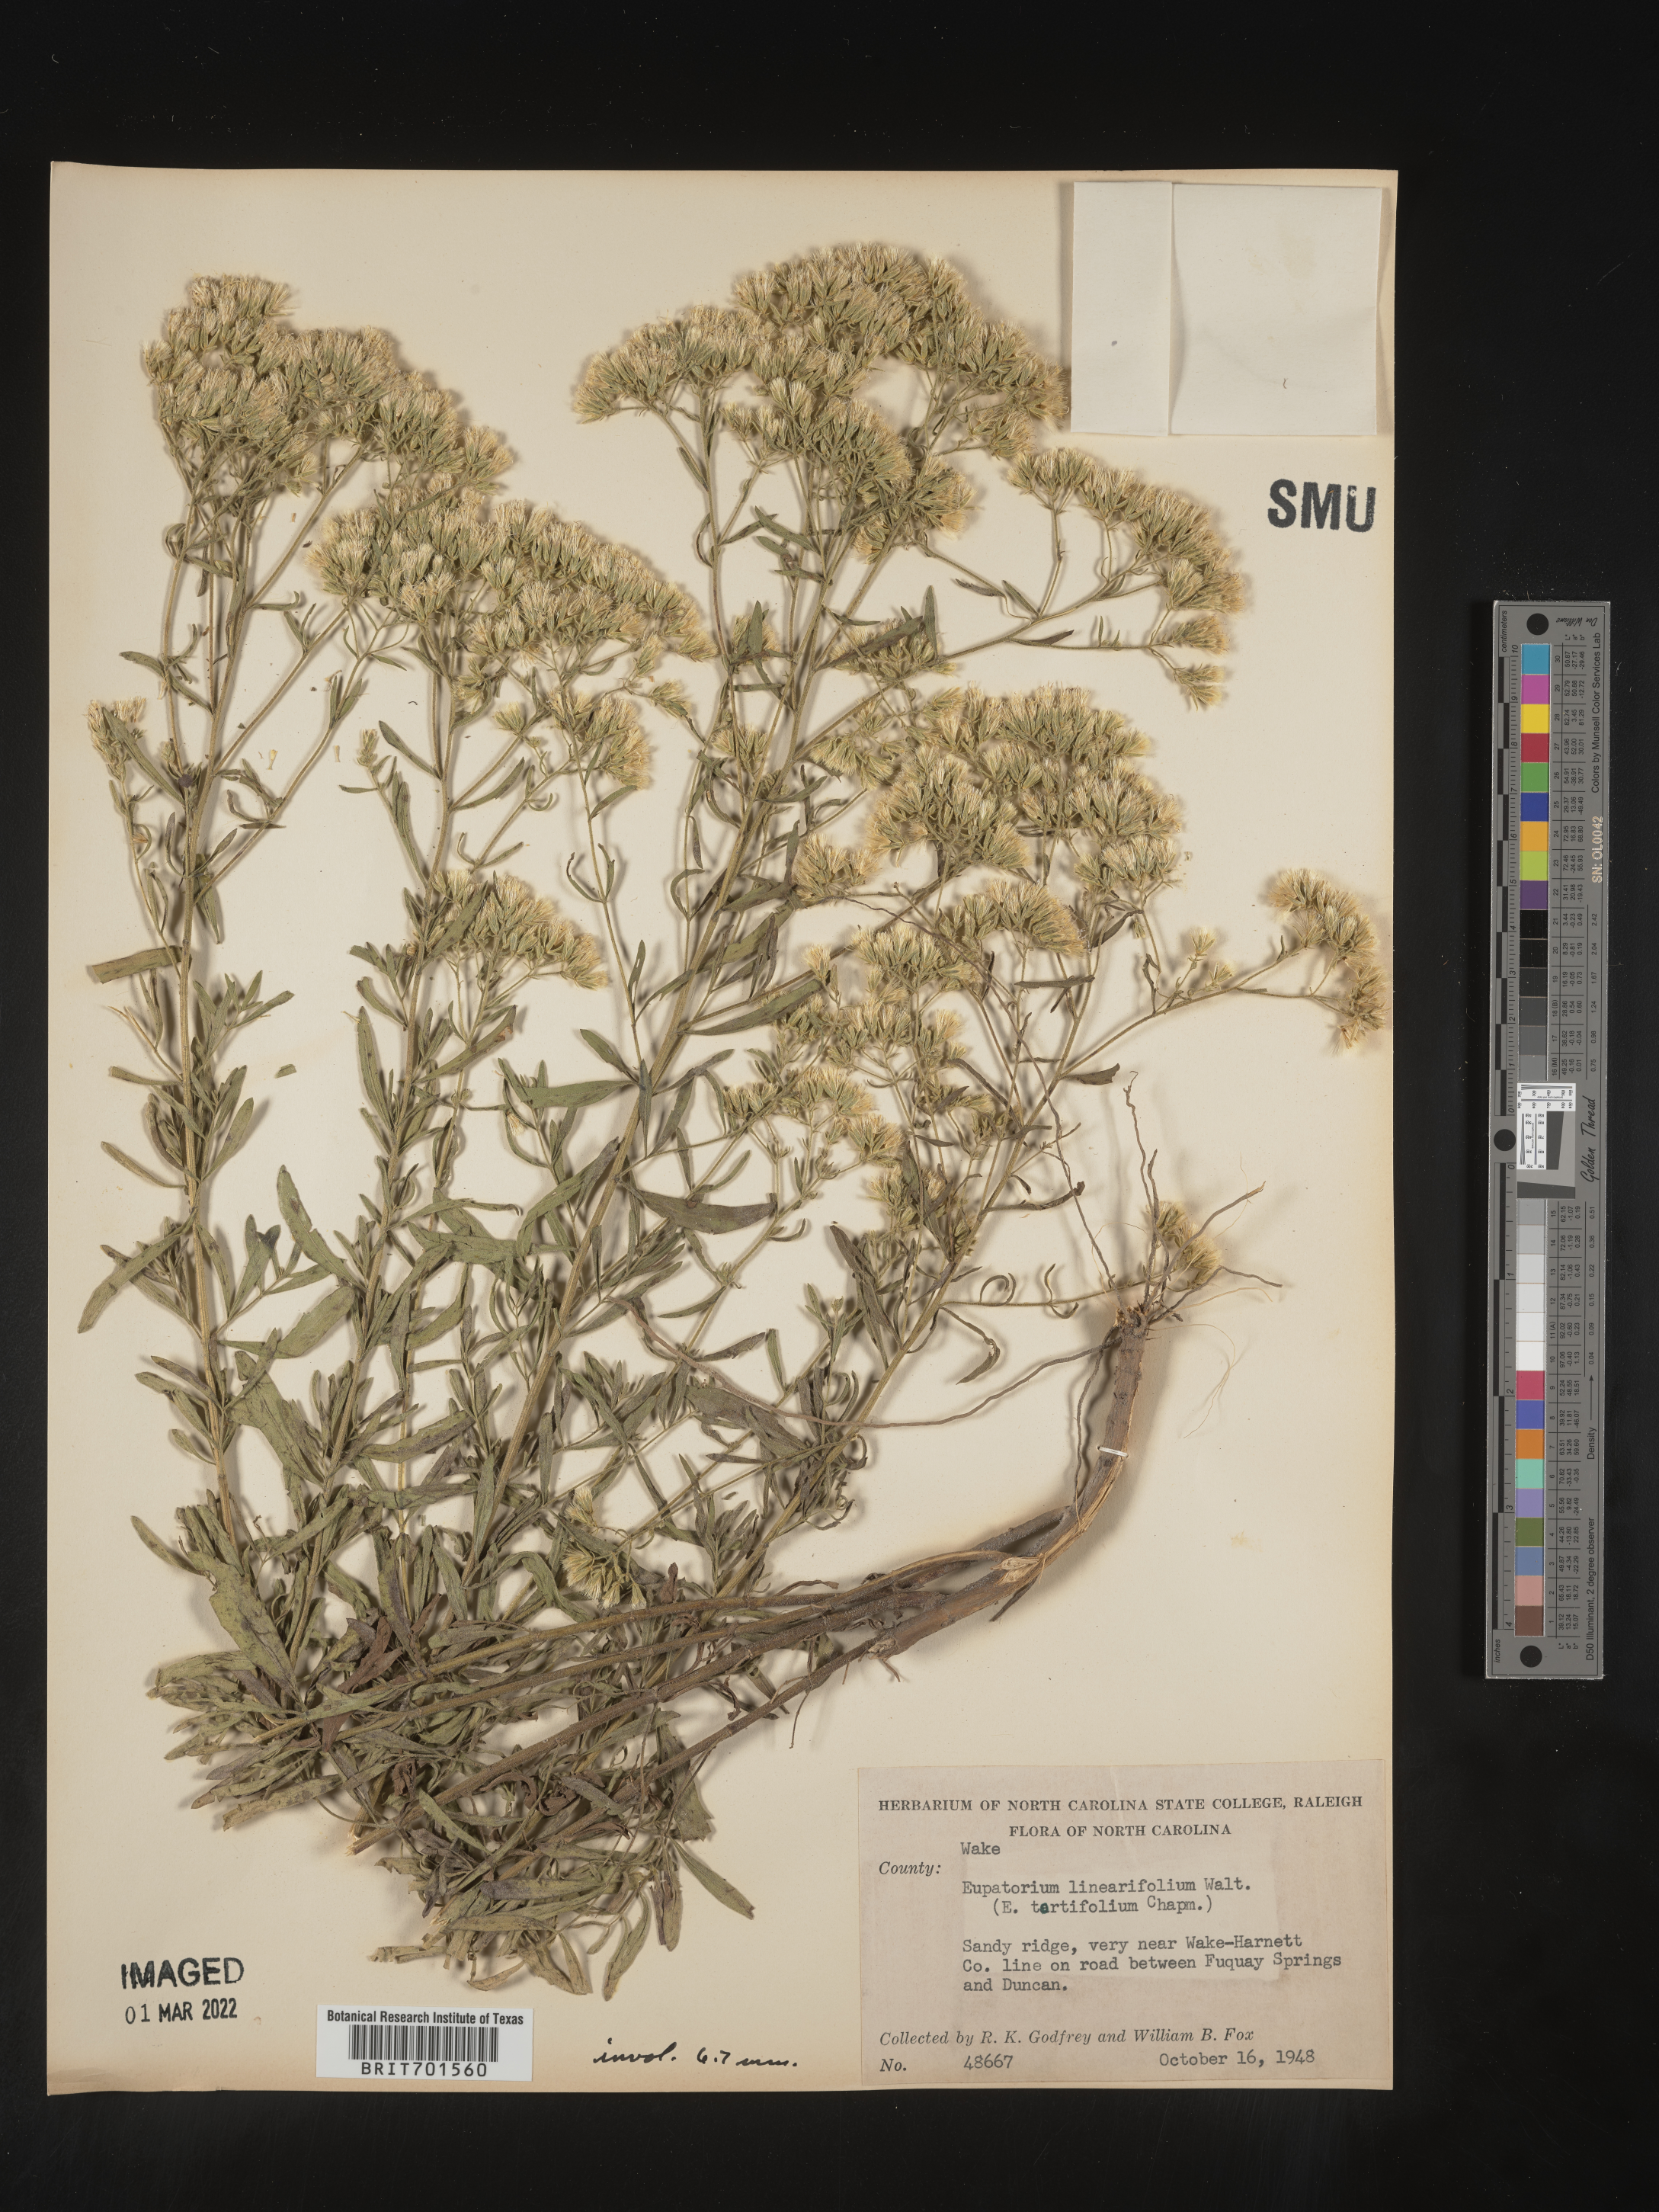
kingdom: Plantae
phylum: Tracheophyta
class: Magnoliopsida
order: Asterales
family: Asteraceae
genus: Eupatorium
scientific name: Eupatorium linearifolium
